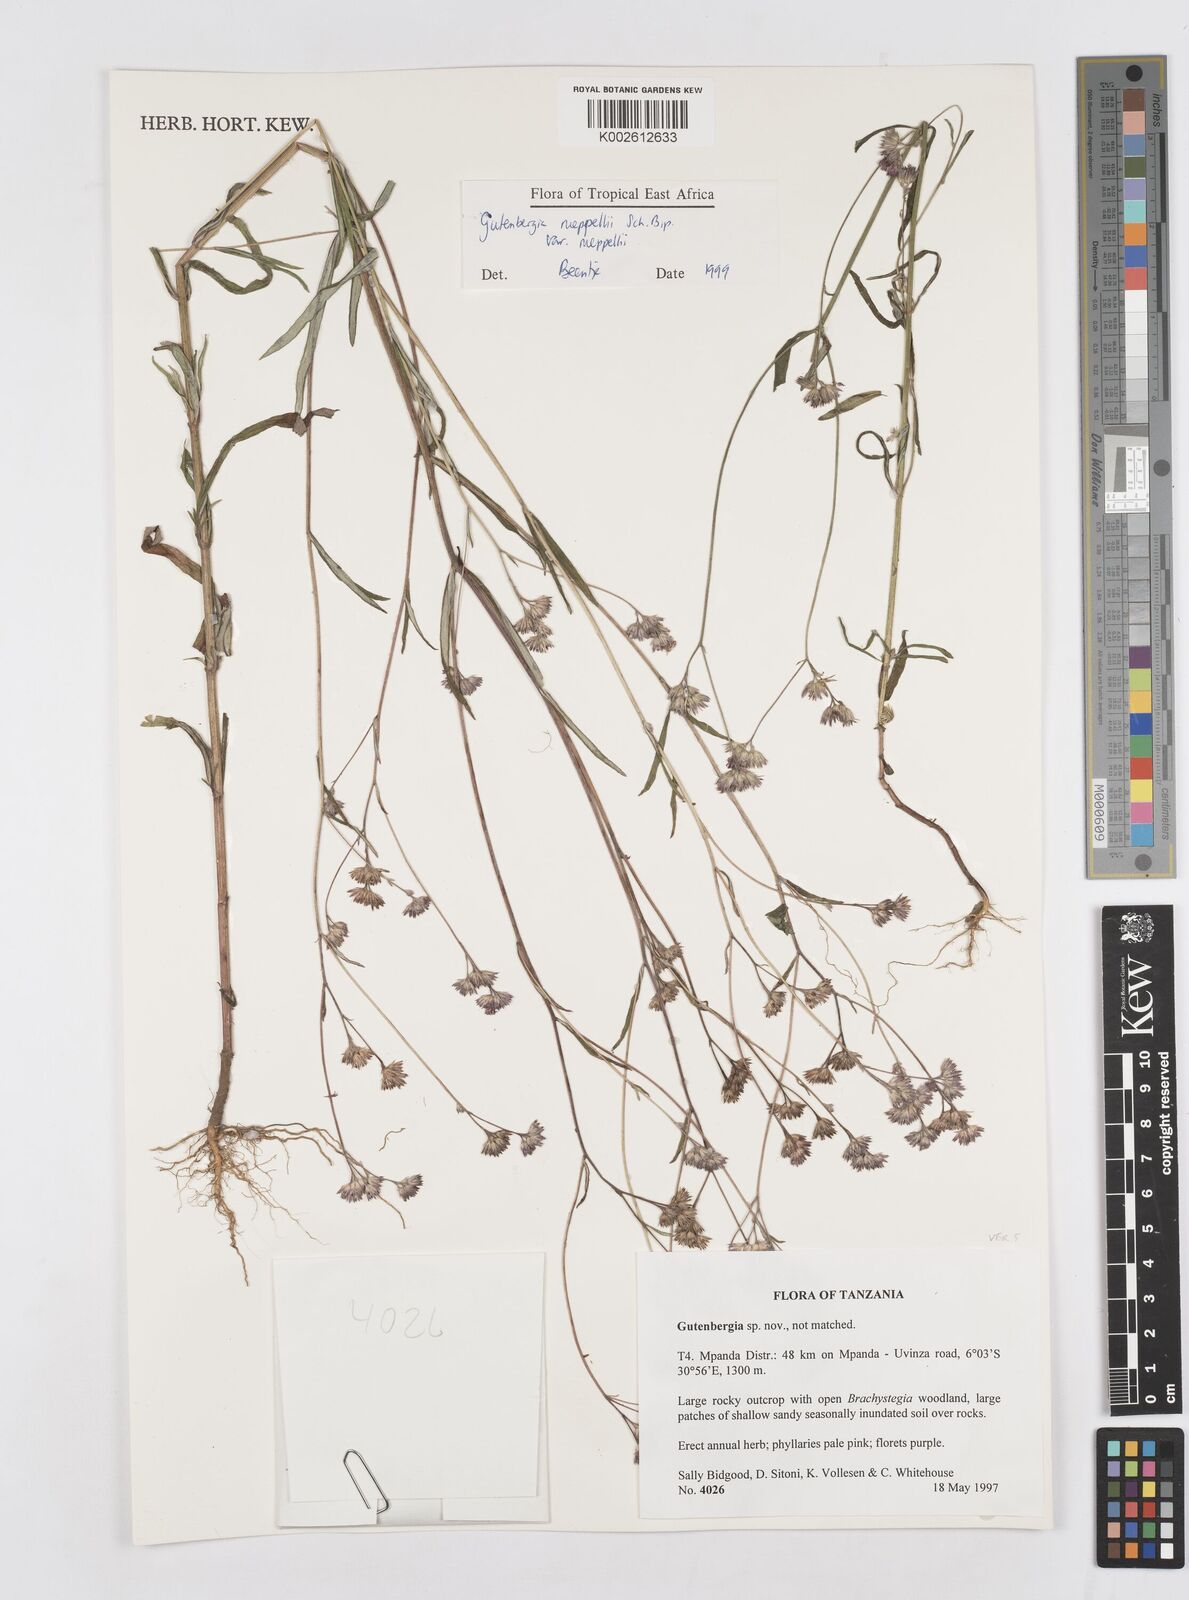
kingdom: Plantae
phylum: Tracheophyta
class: Magnoliopsida
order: Asterales
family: Asteraceae
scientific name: Asteraceae
